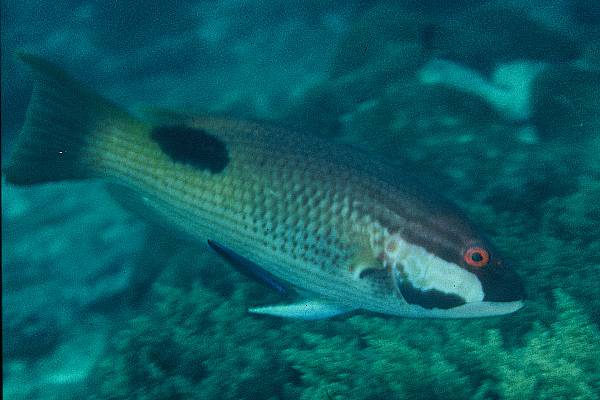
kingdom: Animalia
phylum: Chordata
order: Perciformes
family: Labridae
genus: Bodianus
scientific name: Bodianus bilunulatus
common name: Tarry hogfish
